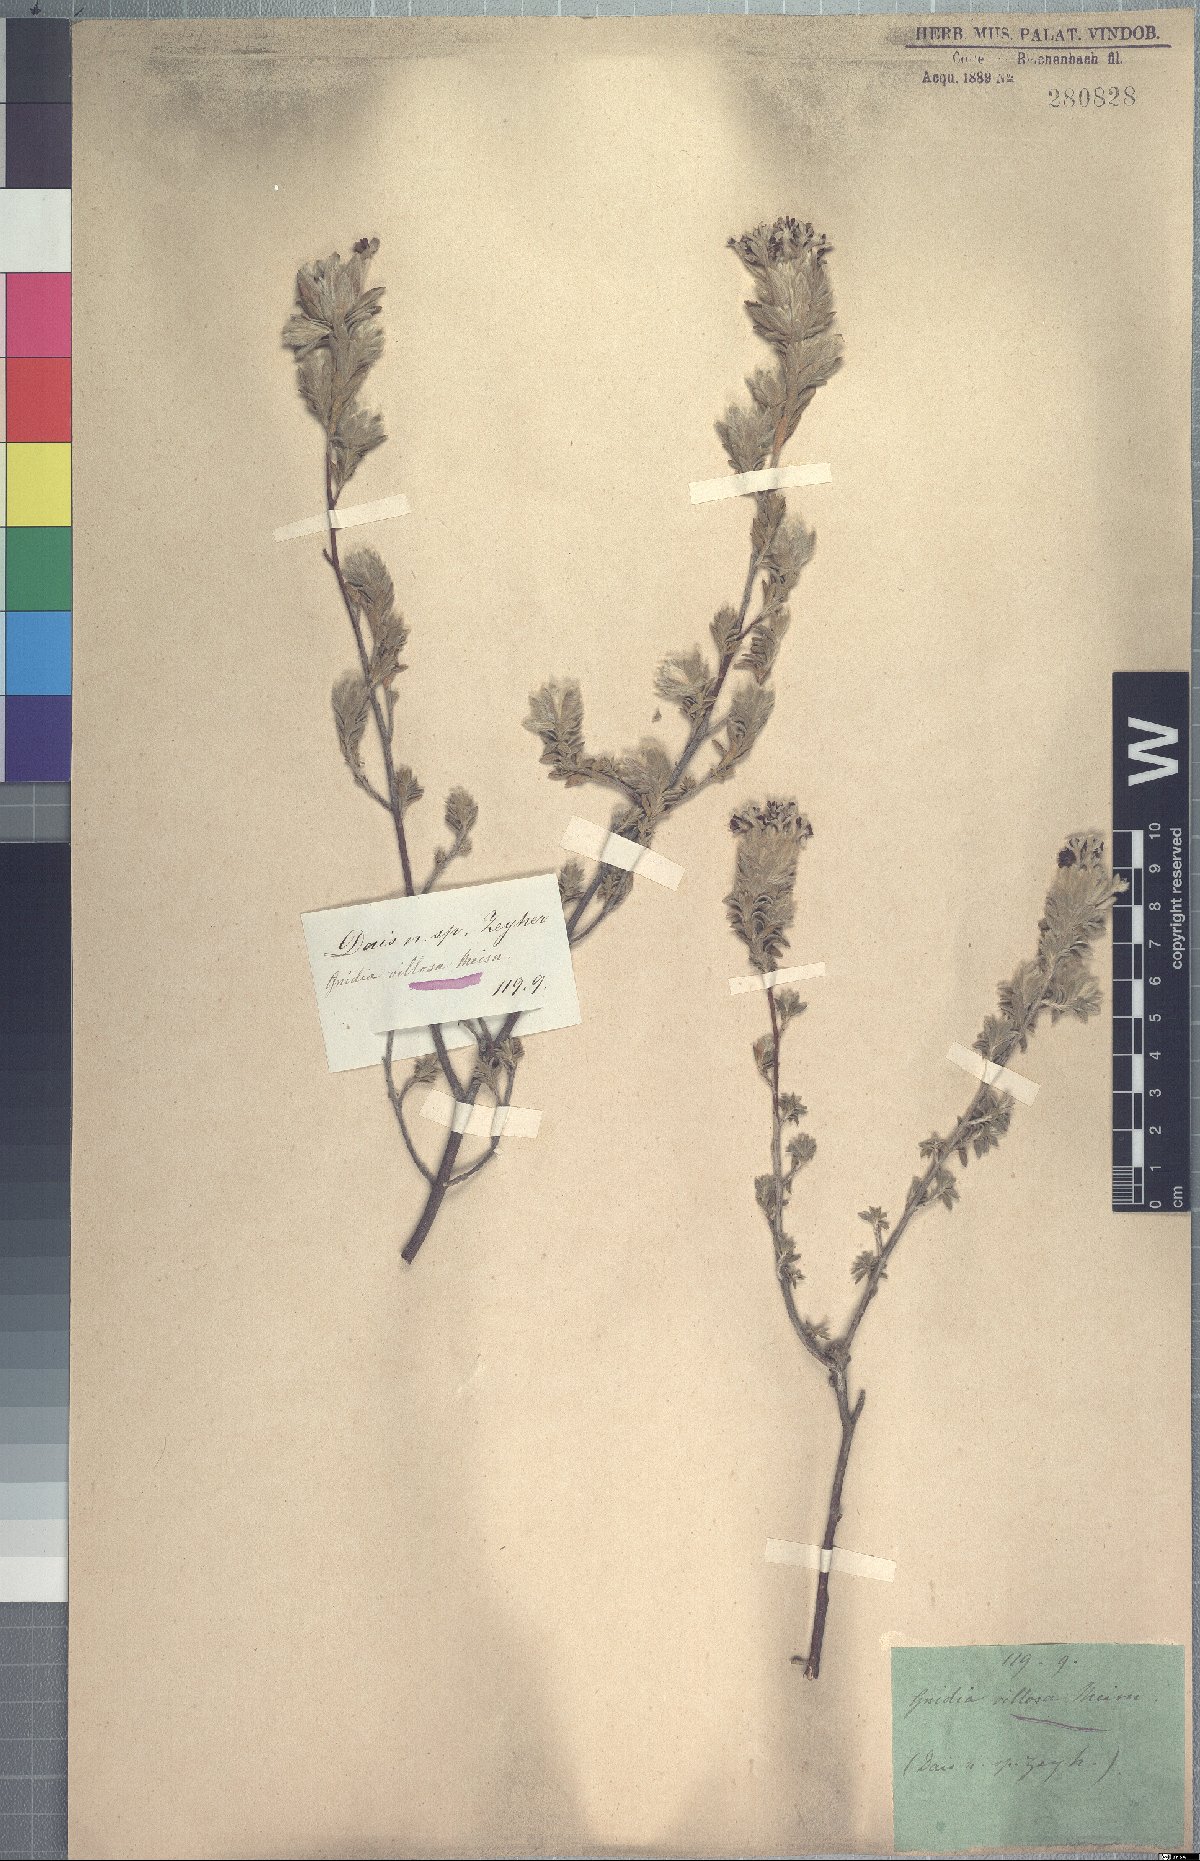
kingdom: Plantae
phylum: Tracheophyta
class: Magnoliopsida
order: Malvales
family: Thymelaeaceae
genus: Gnidia
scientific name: Gnidia burchellii
